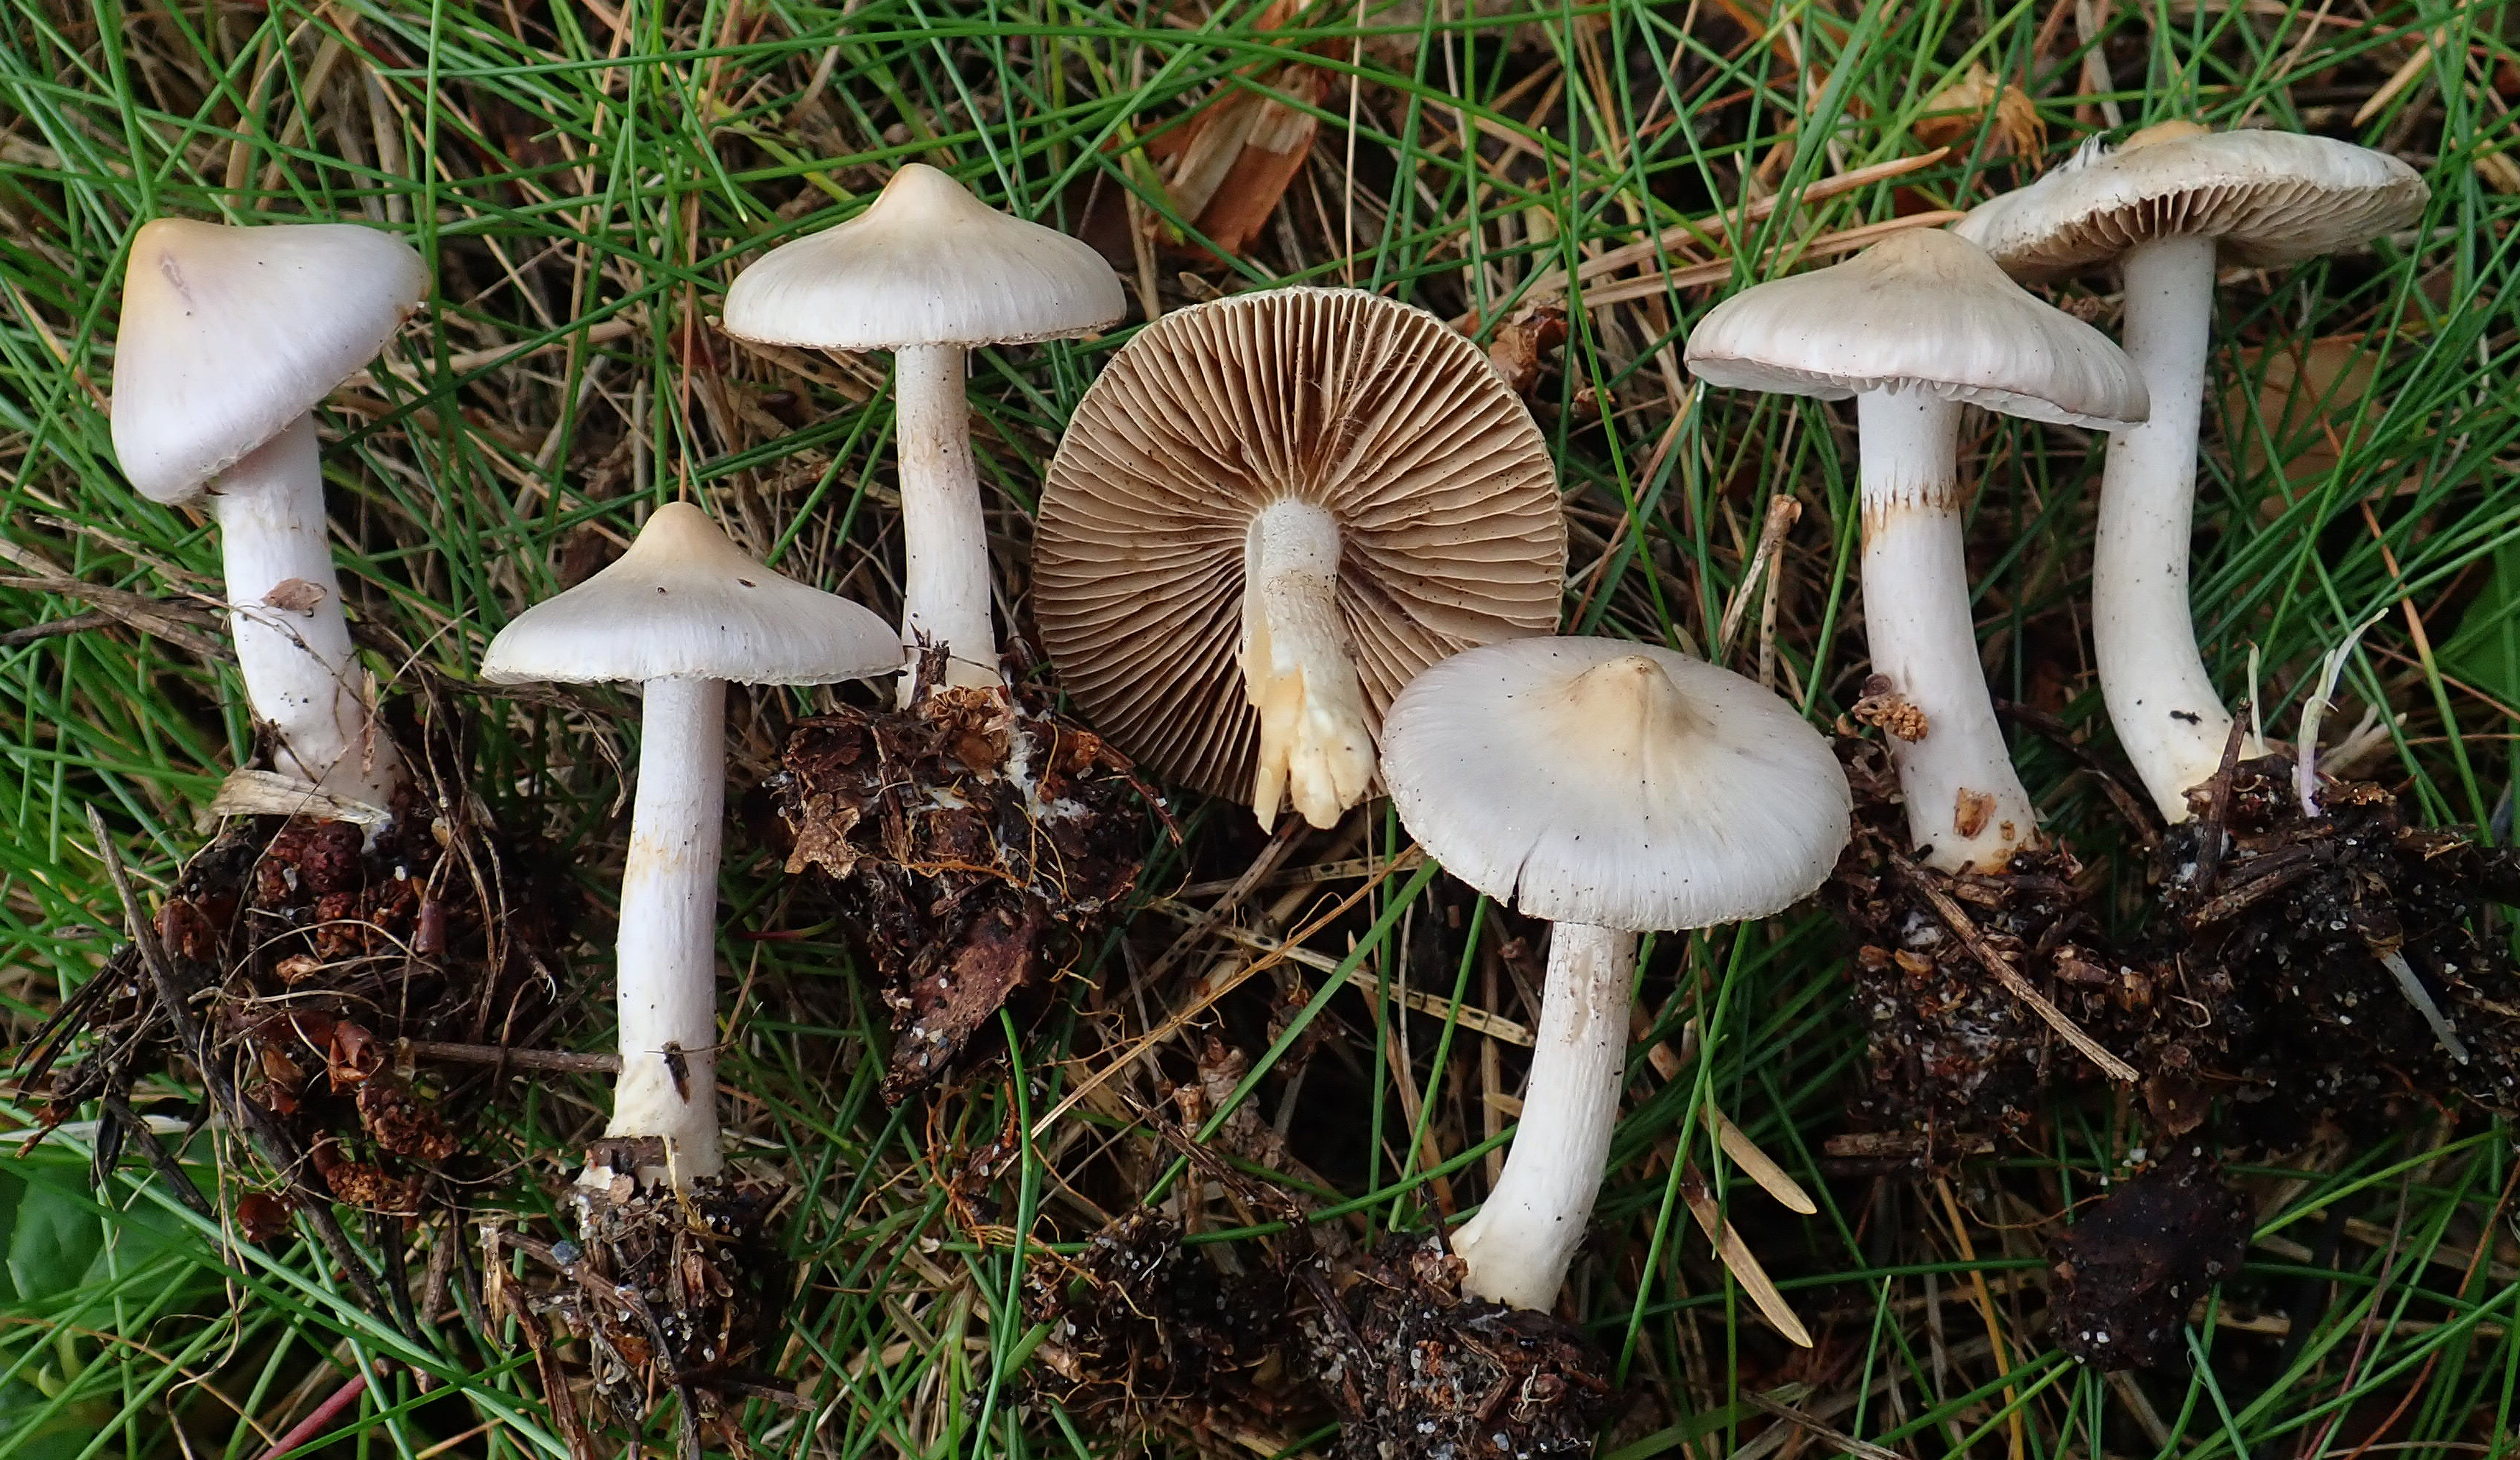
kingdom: Fungi
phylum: Basidiomycota
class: Agaricomycetes
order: Agaricales
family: Inocybaceae
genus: Inocybe
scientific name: Inocybe geophylla
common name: White fibrecap
